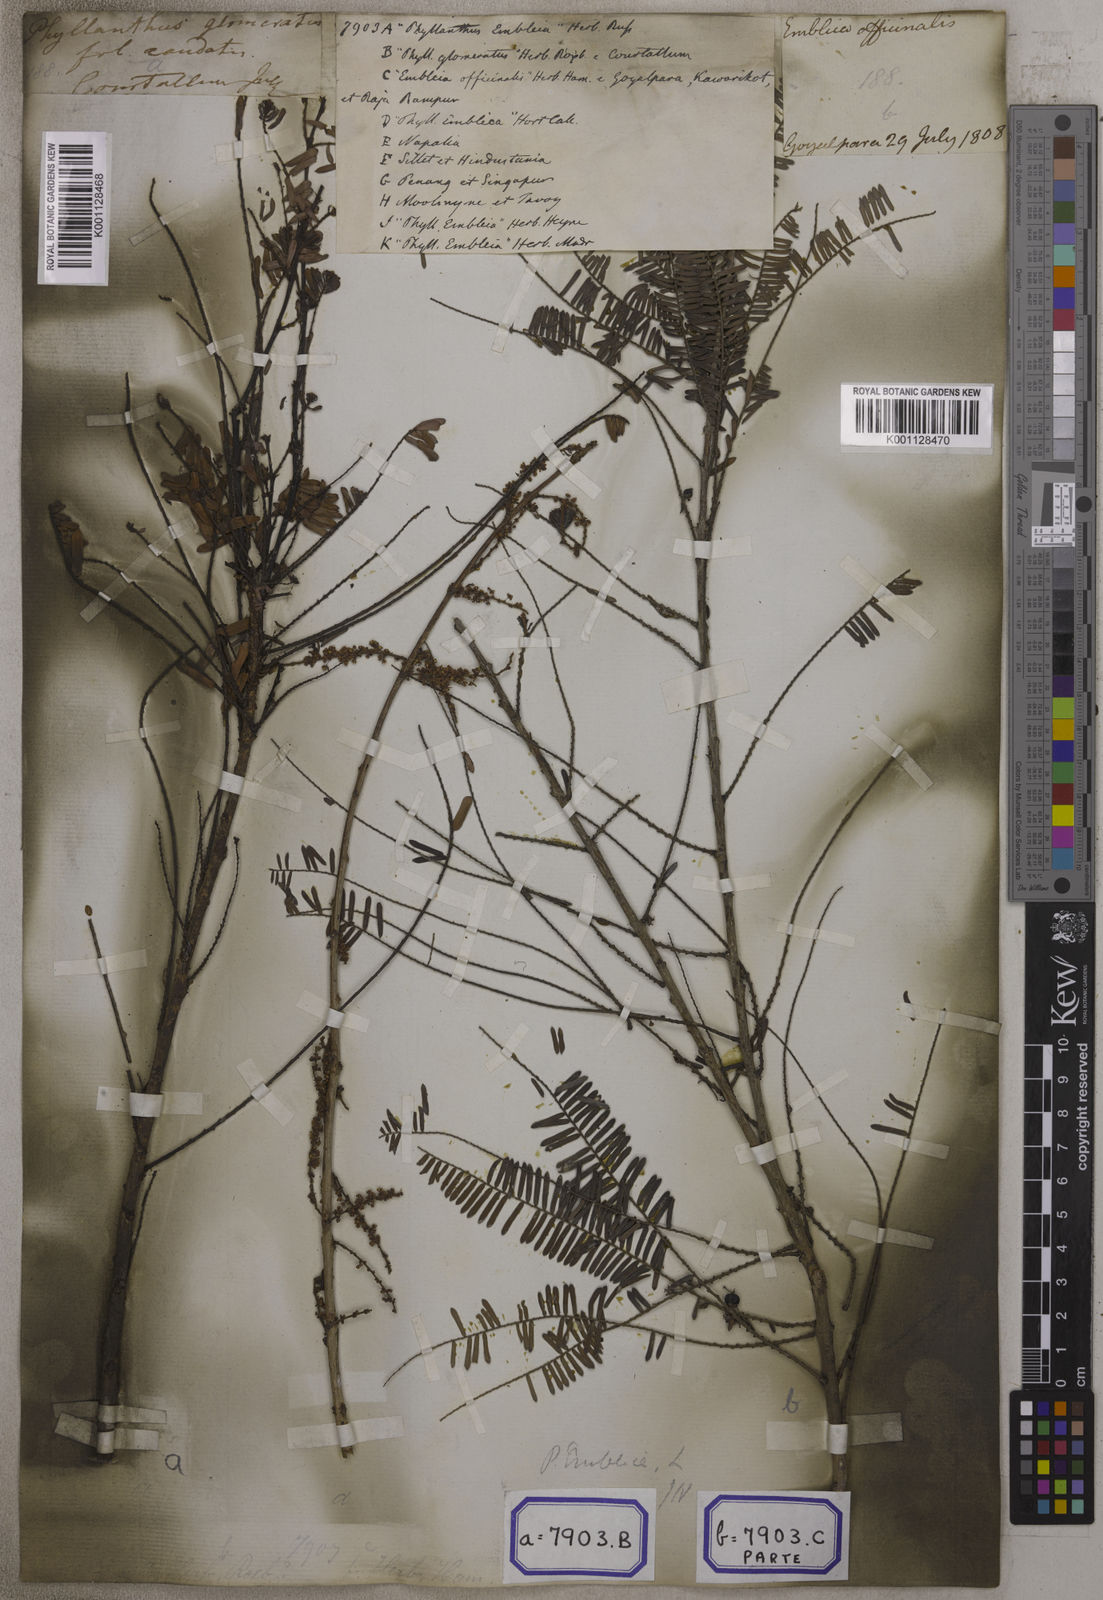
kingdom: Plantae
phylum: Tracheophyta
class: Magnoliopsida
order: Malpighiales
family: Euphorbiaceae
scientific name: Euphorbiaceae
